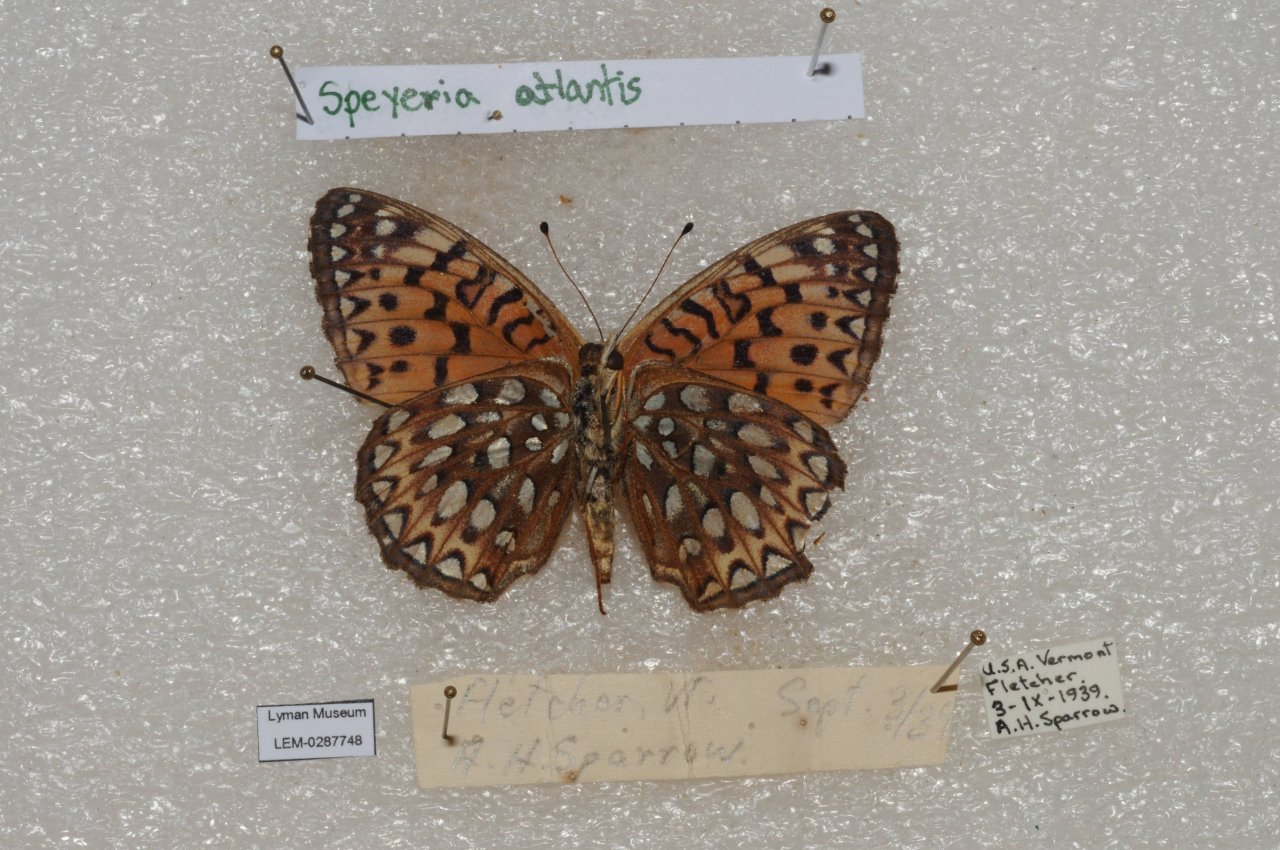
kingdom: Animalia
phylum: Arthropoda
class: Insecta
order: Lepidoptera
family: Nymphalidae
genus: Speyeria
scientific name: Speyeria atlantis
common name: Atlantis Fritillary
